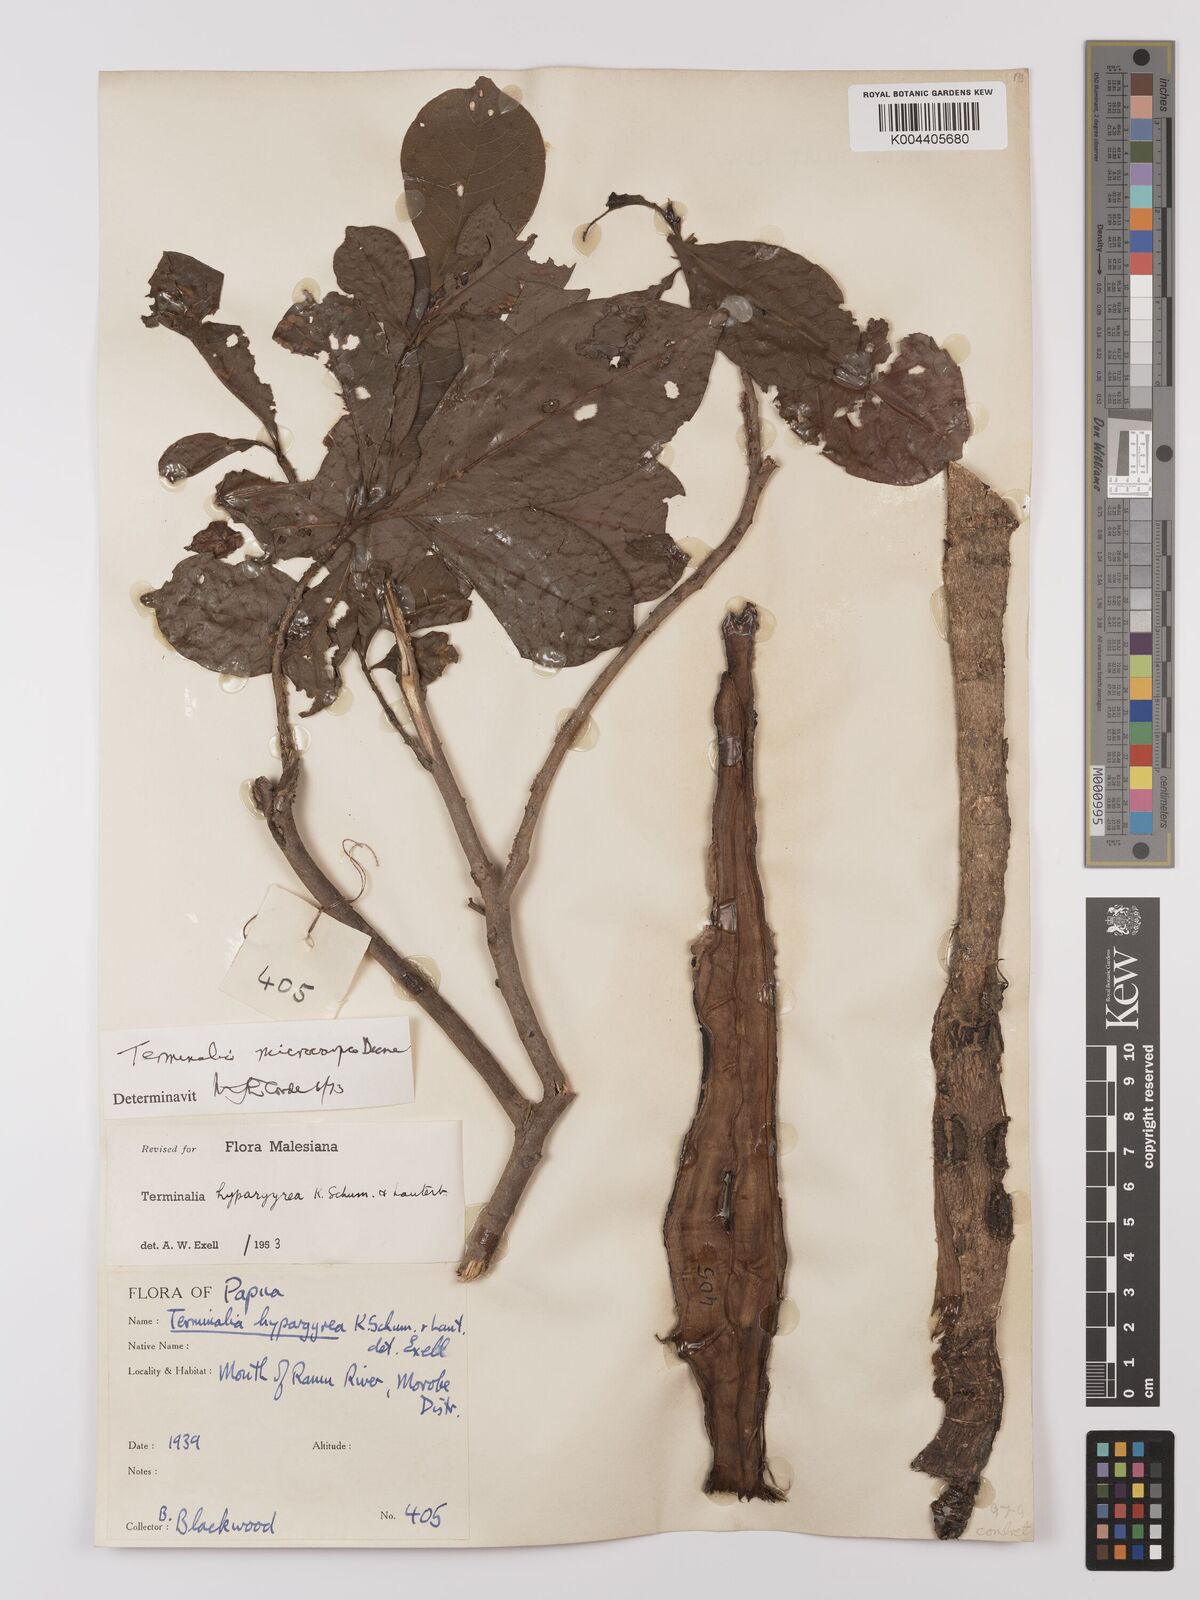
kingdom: Plantae
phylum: Tracheophyta
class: Magnoliopsida
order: Myrtales
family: Combretaceae
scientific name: Combretaceae
